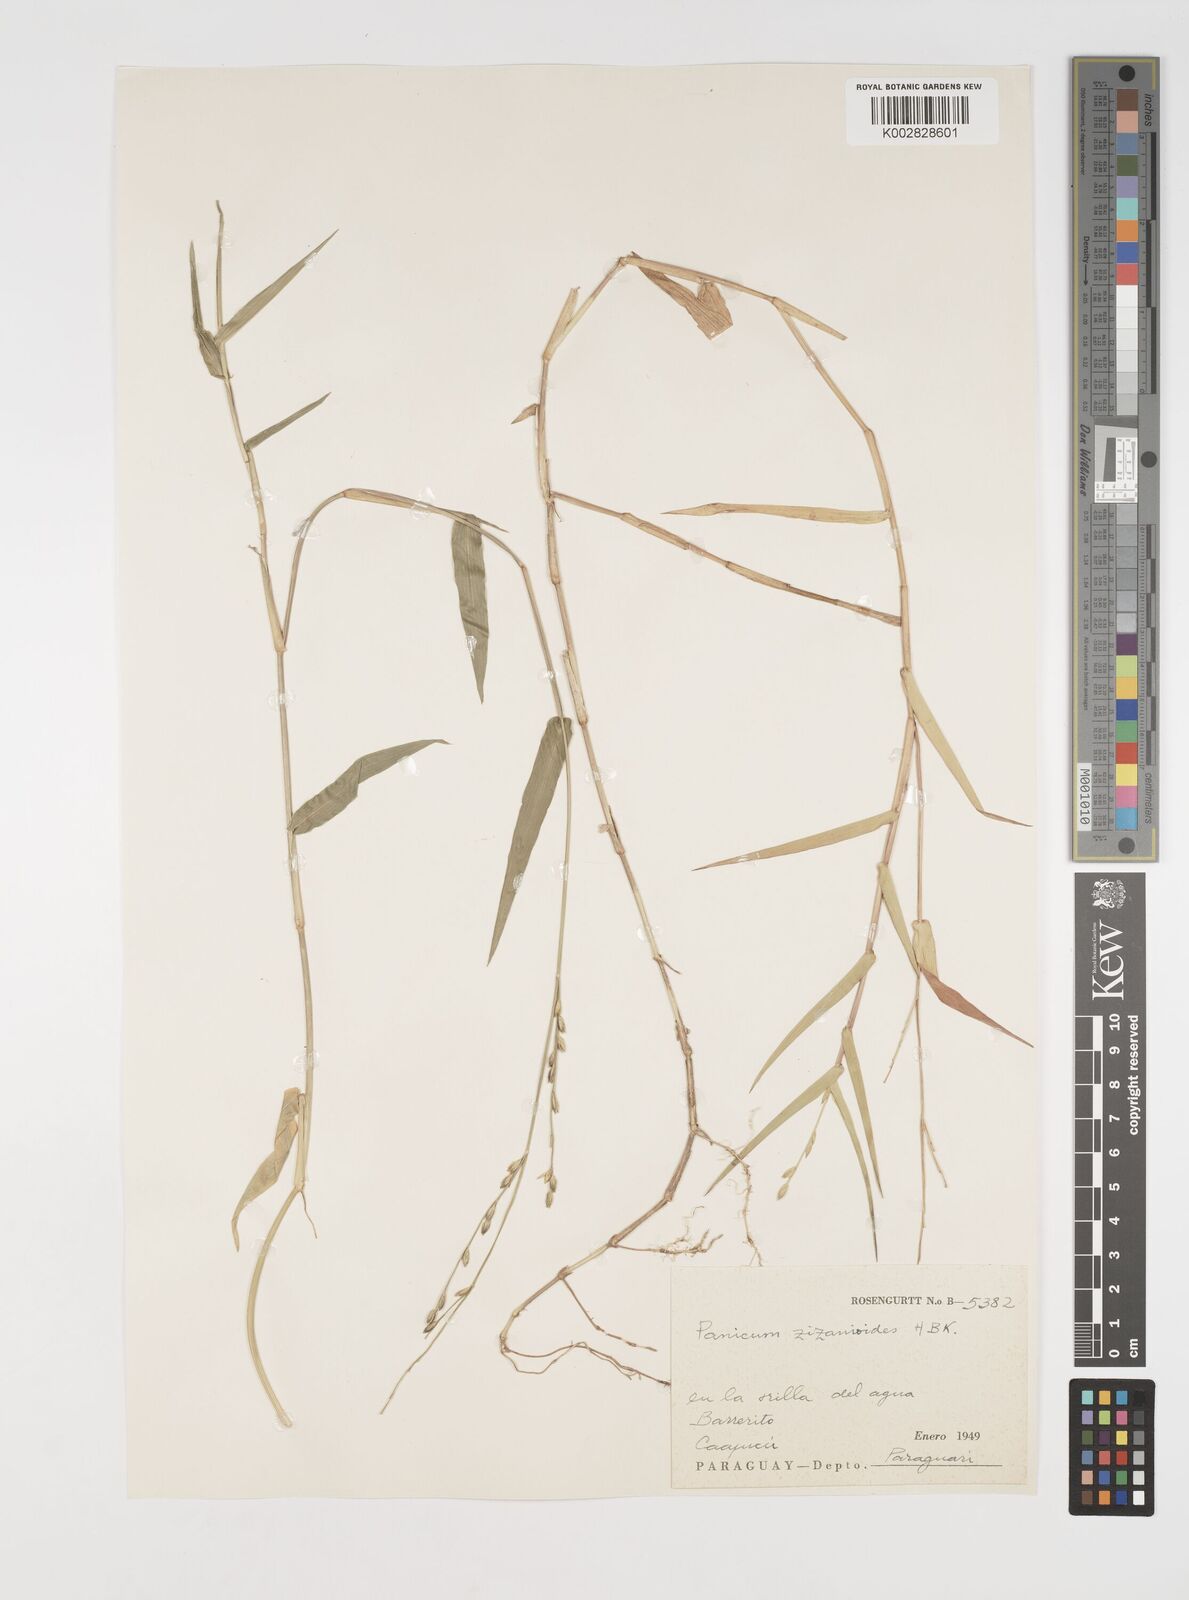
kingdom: Plantae
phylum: Tracheophyta
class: Liliopsida
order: Poales
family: Poaceae
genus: Acroceras
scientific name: Acroceras zizanioides
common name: Oat grass
